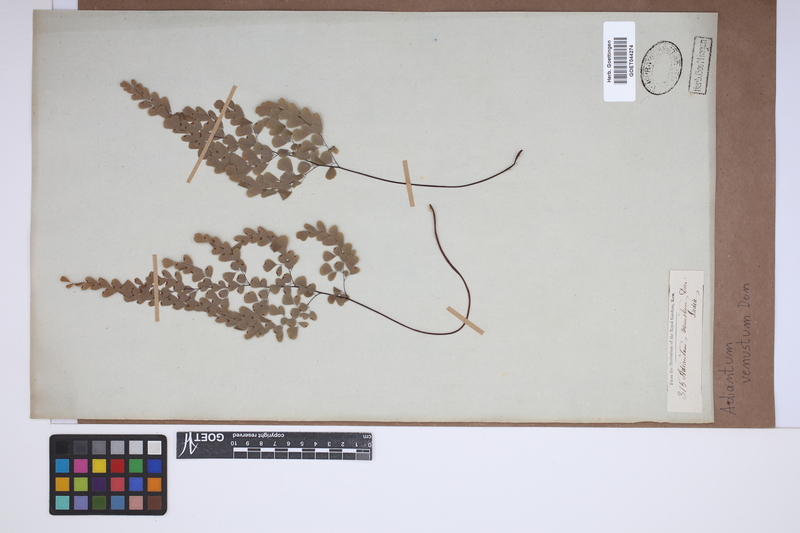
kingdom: Plantae
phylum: Tracheophyta
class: Polypodiopsida
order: Polypodiales
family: Pteridaceae
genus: Adiantum
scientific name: Adiantum venustum
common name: Evergreen maidenhair
